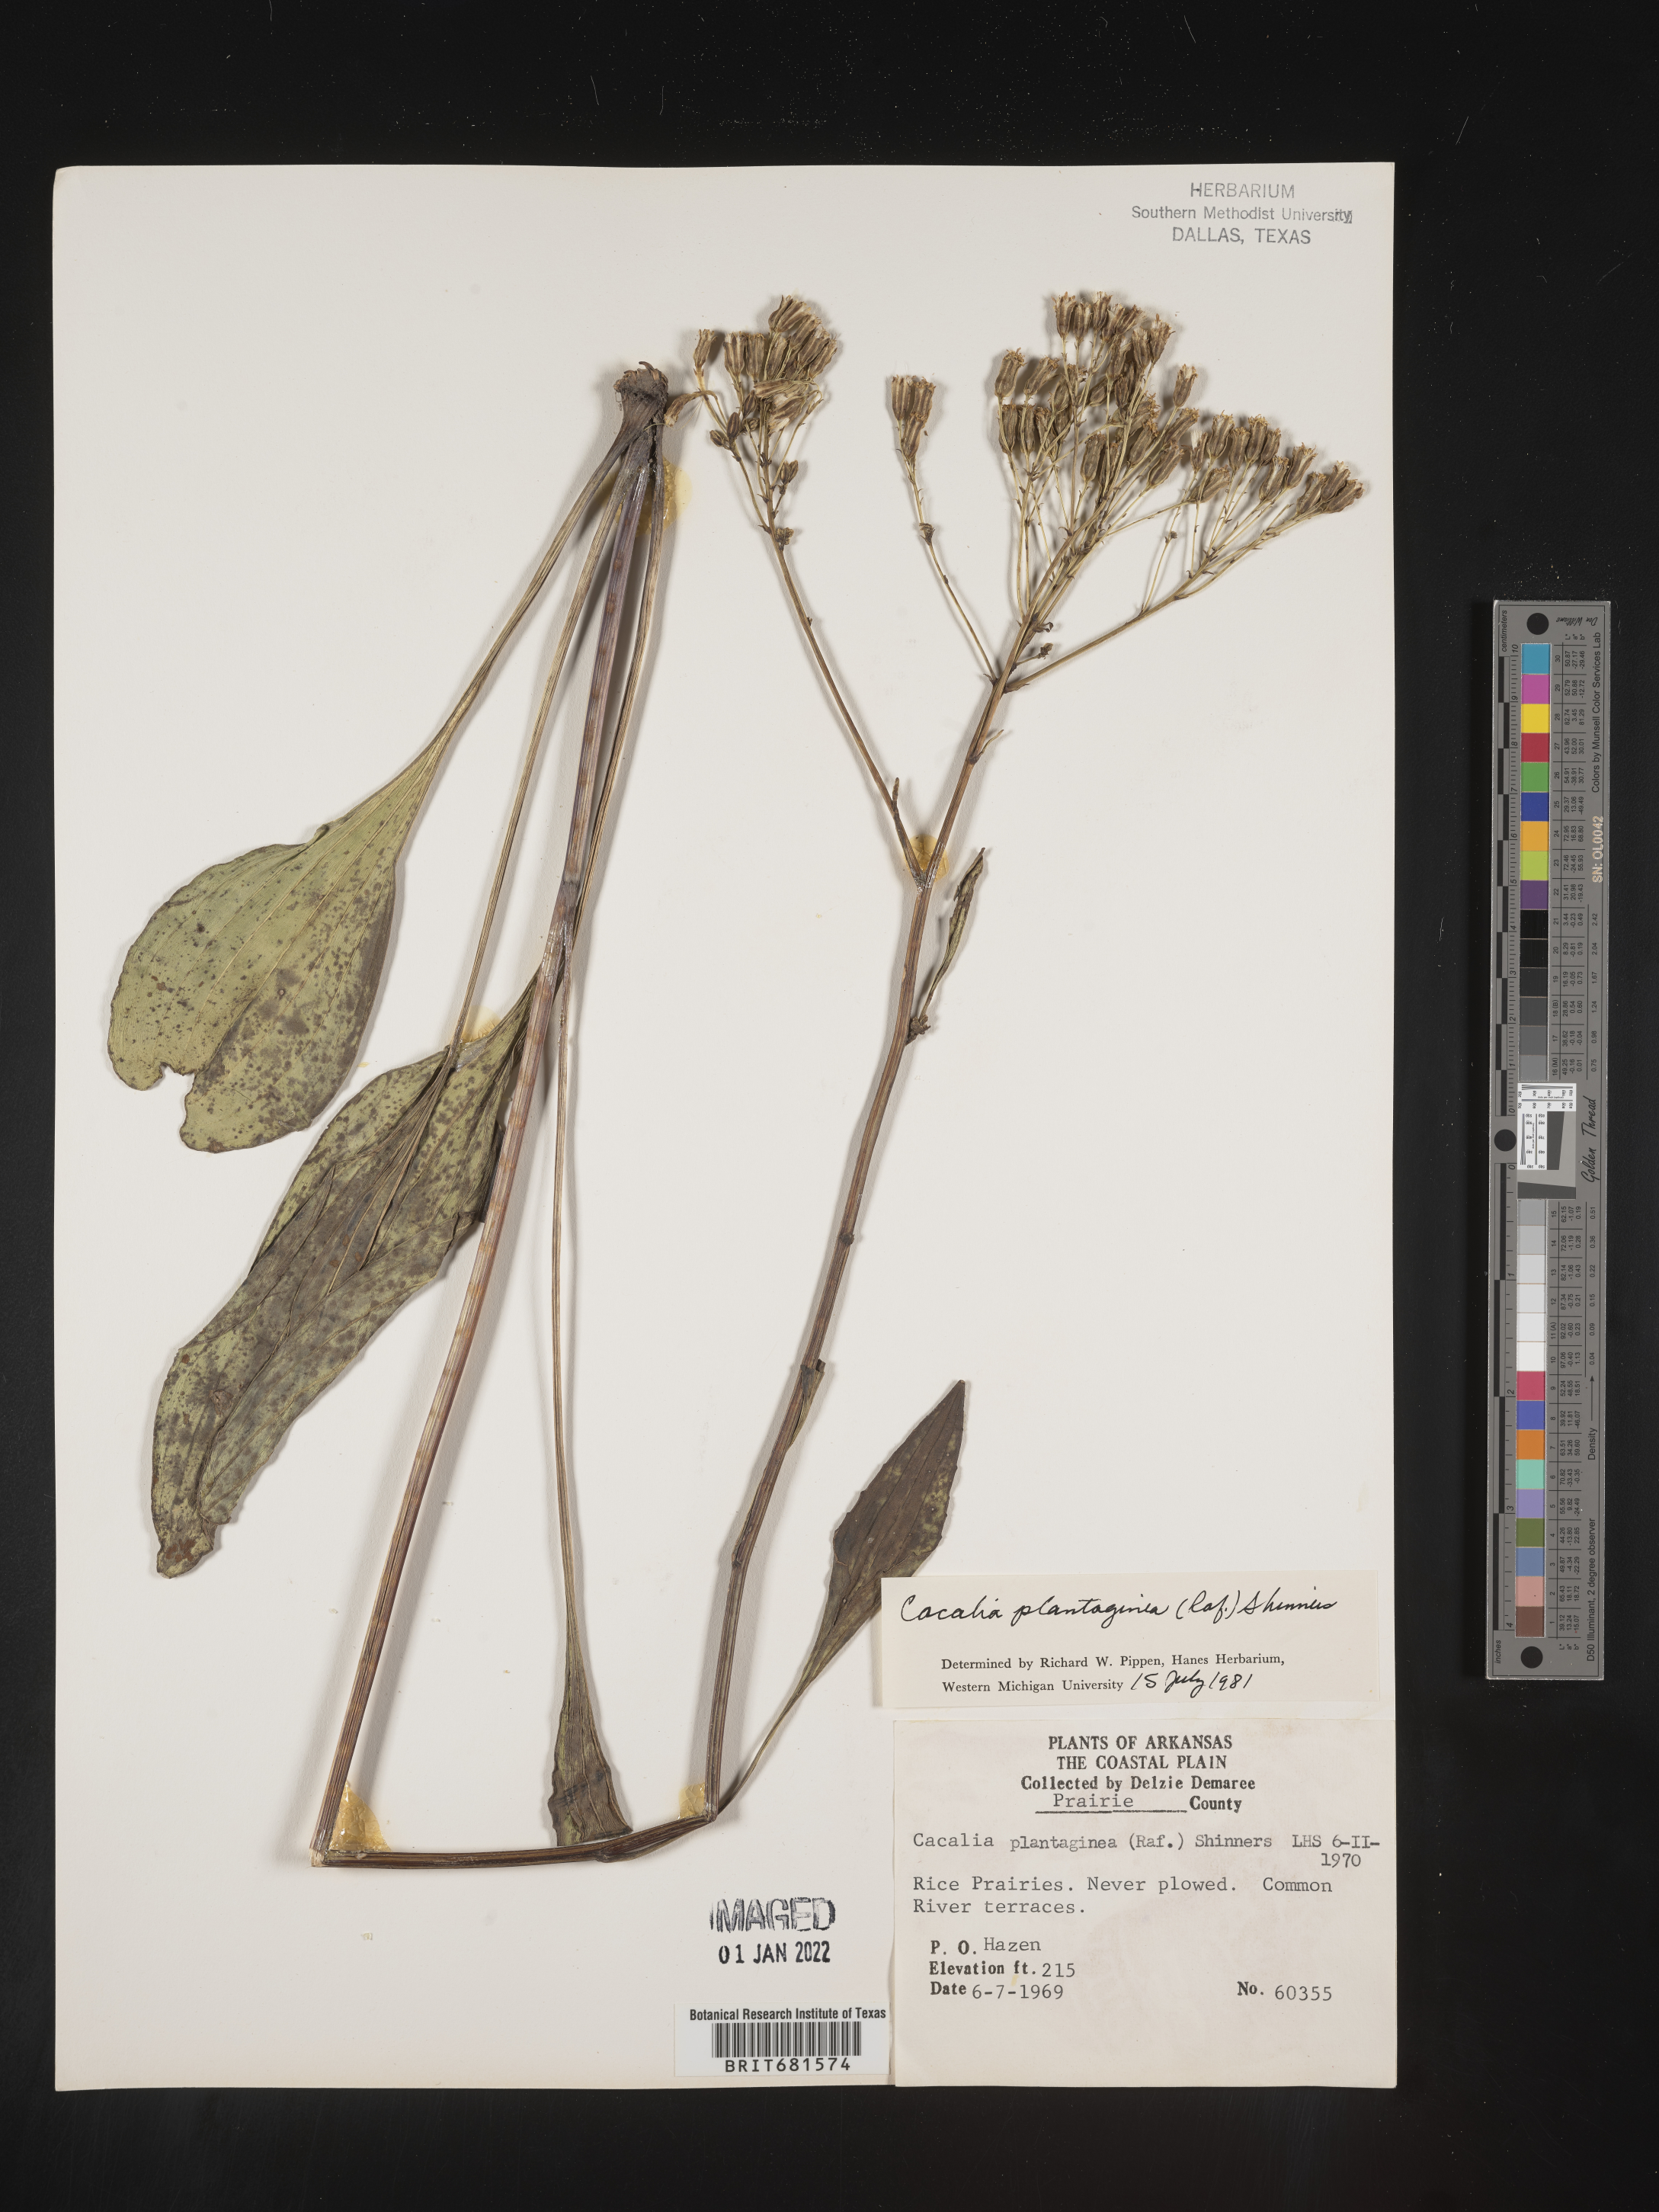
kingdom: Plantae
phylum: Tracheophyta
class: Magnoliopsida
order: Asterales
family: Asteraceae
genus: Arnoglossum
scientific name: Arnoglossum plantagineum
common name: Groove-stemmed indian-plantain
